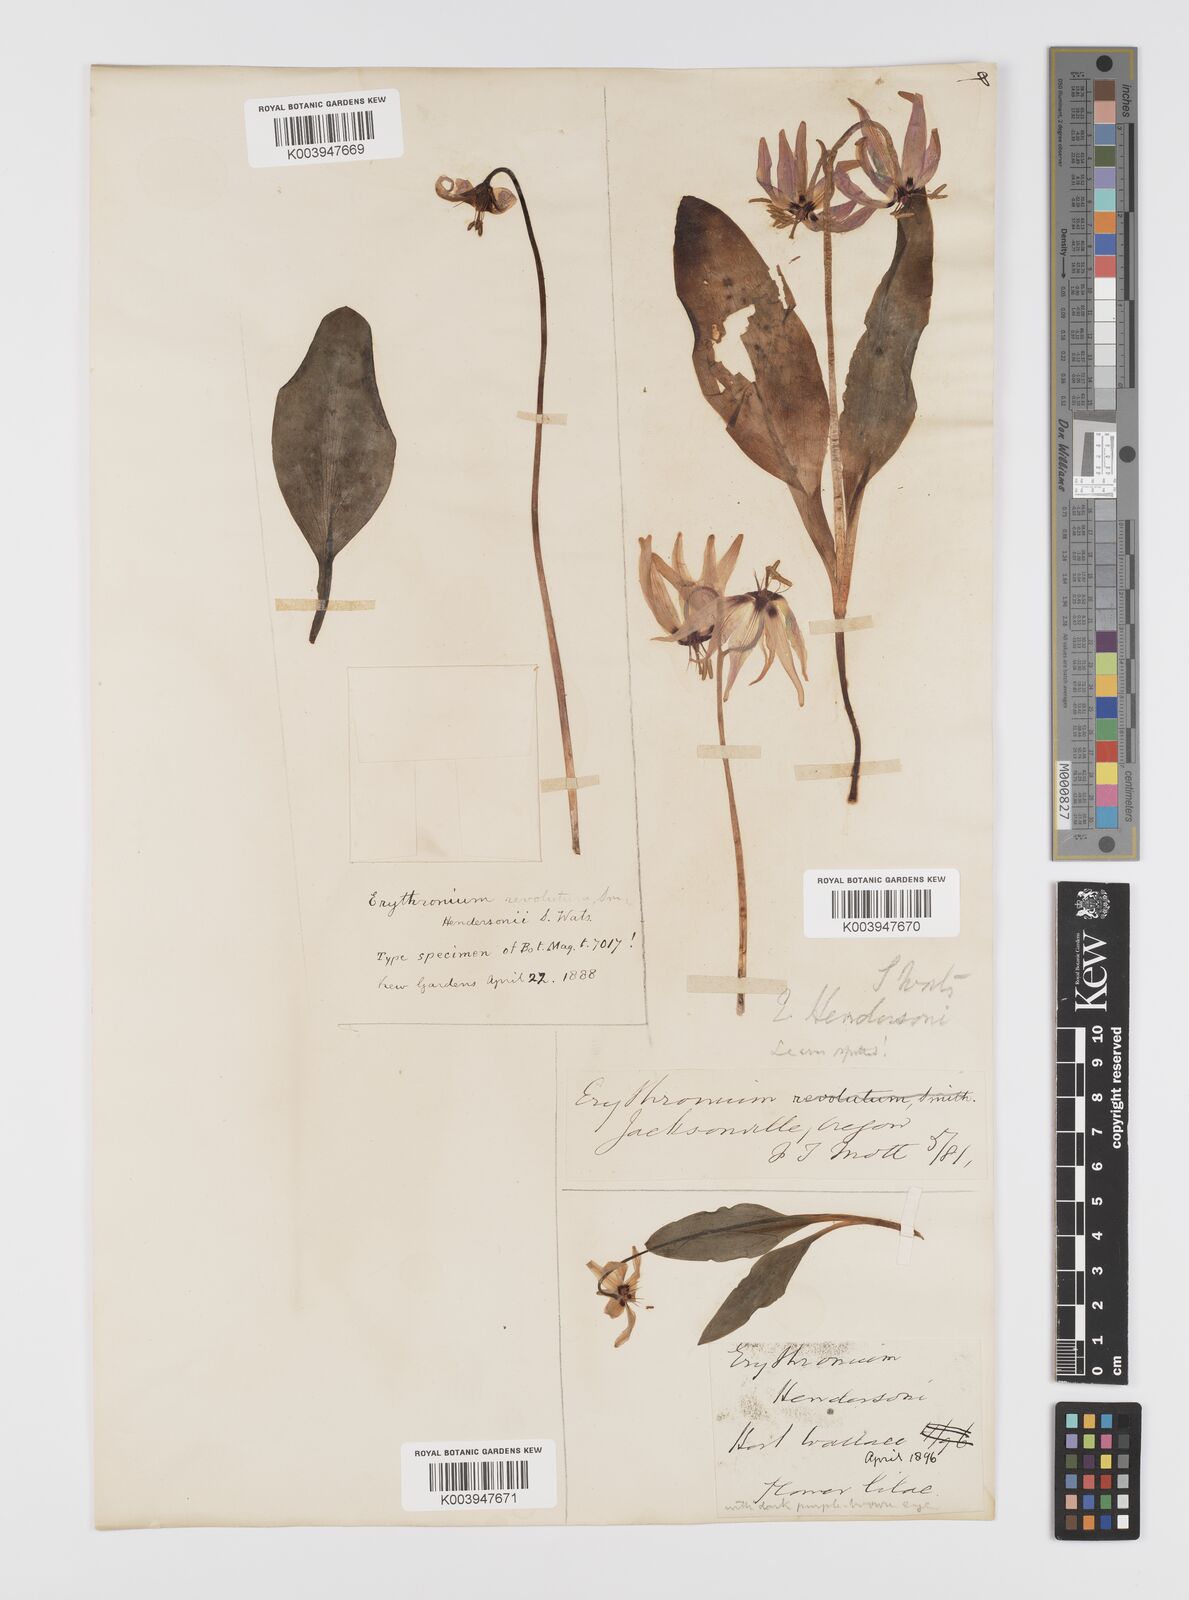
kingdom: Plantae
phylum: Tracheophyta
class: Liliopsida
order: Liliales
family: Liliaceae
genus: Erythronium
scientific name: Erythronium hendersonii
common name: Henderson's fawn-lily
